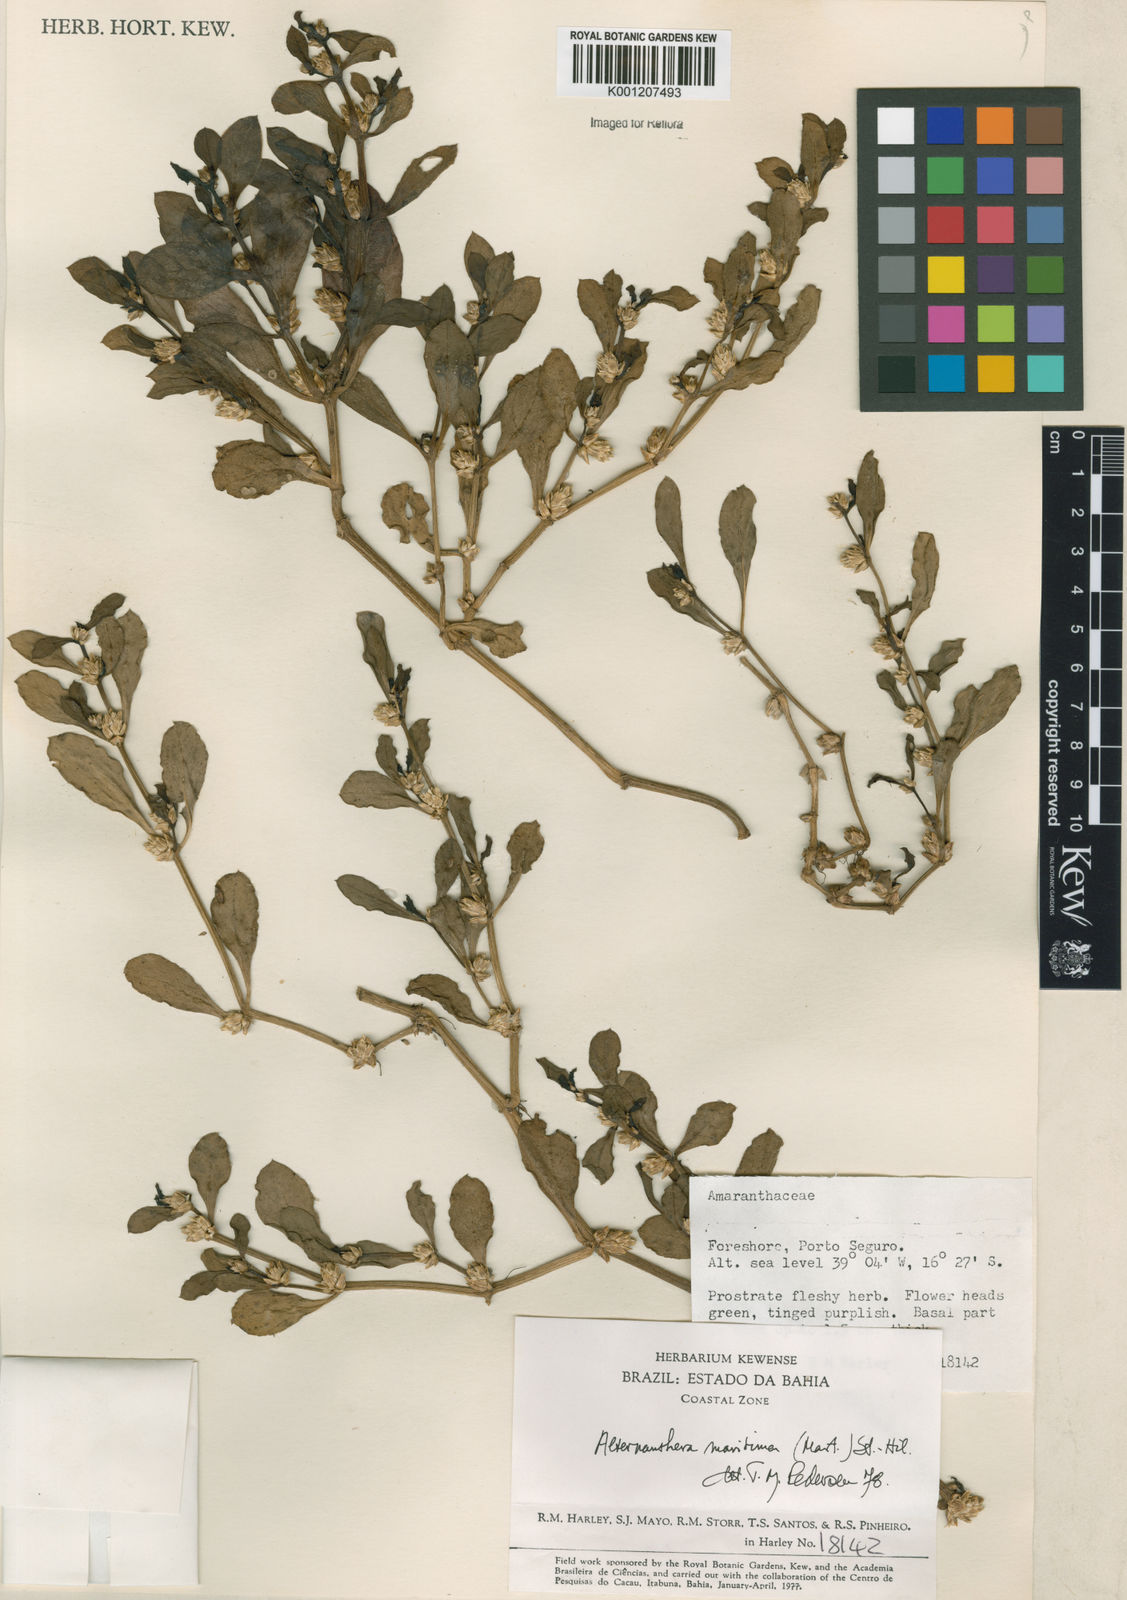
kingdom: Plantae
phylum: Tracheophyta
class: Magnoliopsida
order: Caryophyllales
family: Amaranthaceae
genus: Alternanthera
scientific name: Alternanthera littoralis
